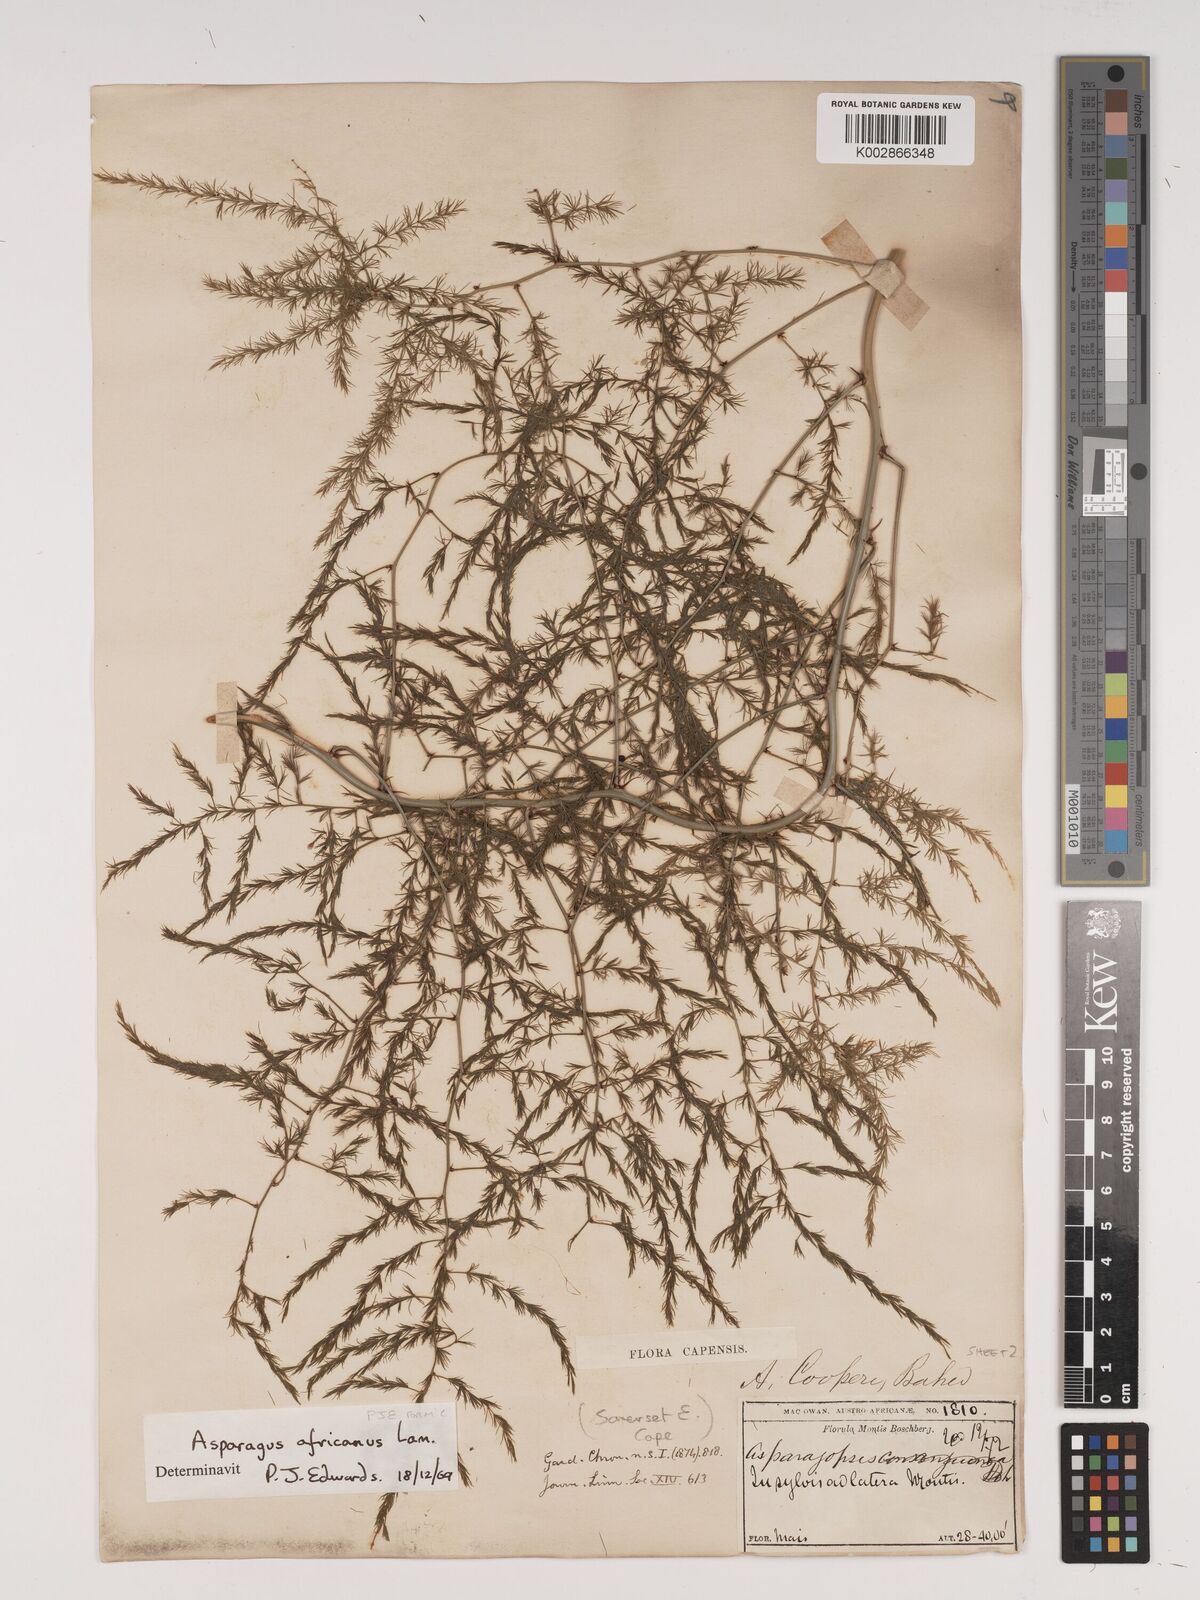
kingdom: Plantae
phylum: Tracheophyta
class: Liliopsida
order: Asparagales
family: Asparagaceae
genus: Asparagus
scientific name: Asparagus africanus
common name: Asparagus-fern
